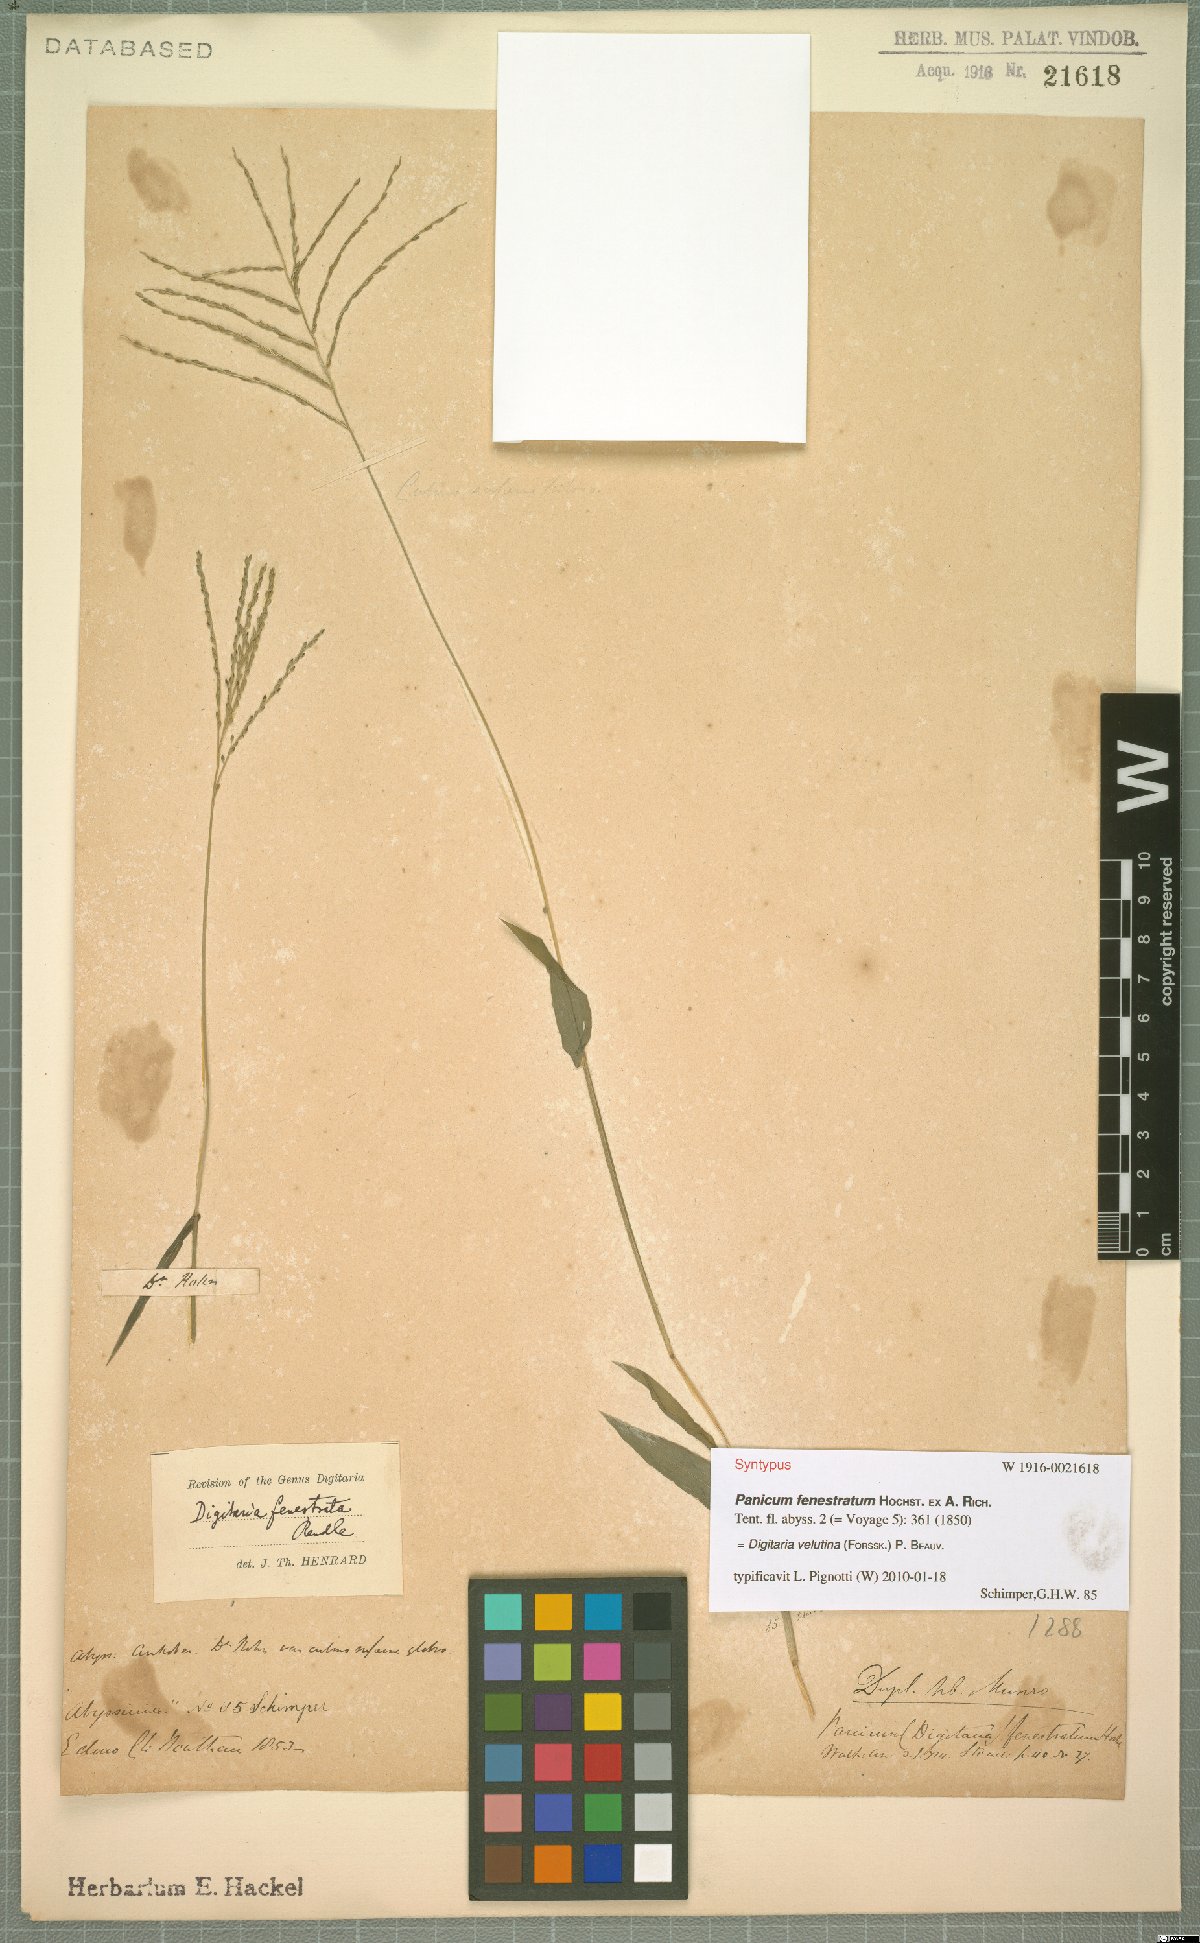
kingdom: Plantae
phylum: Tracheophyta
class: Liliopsida
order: Poales
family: Poaceae
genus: Digitaria
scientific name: Digitaria velutina
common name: Long-plume finger grass
